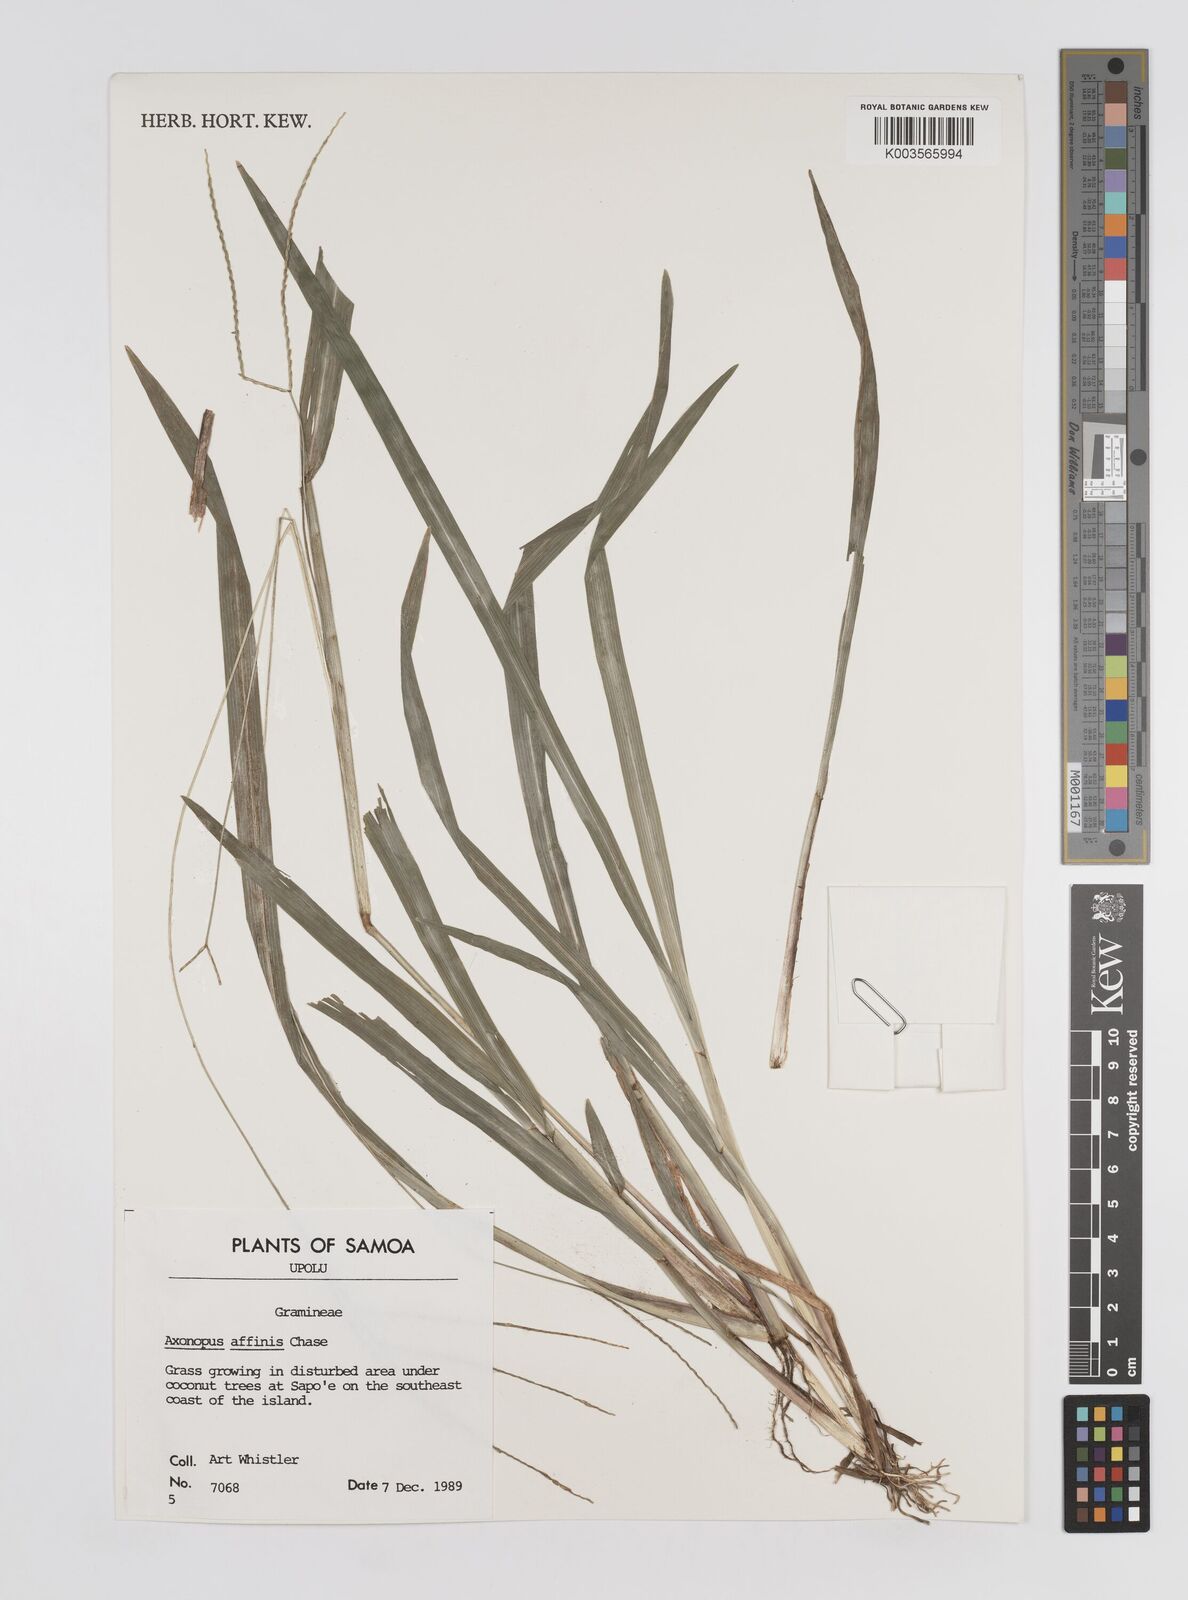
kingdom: Plantae
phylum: Tracheophyta
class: Liliopsida
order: Poales
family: Poaceae
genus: Axonopus
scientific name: Axonopus fissifolius
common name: Common carpetgrass
